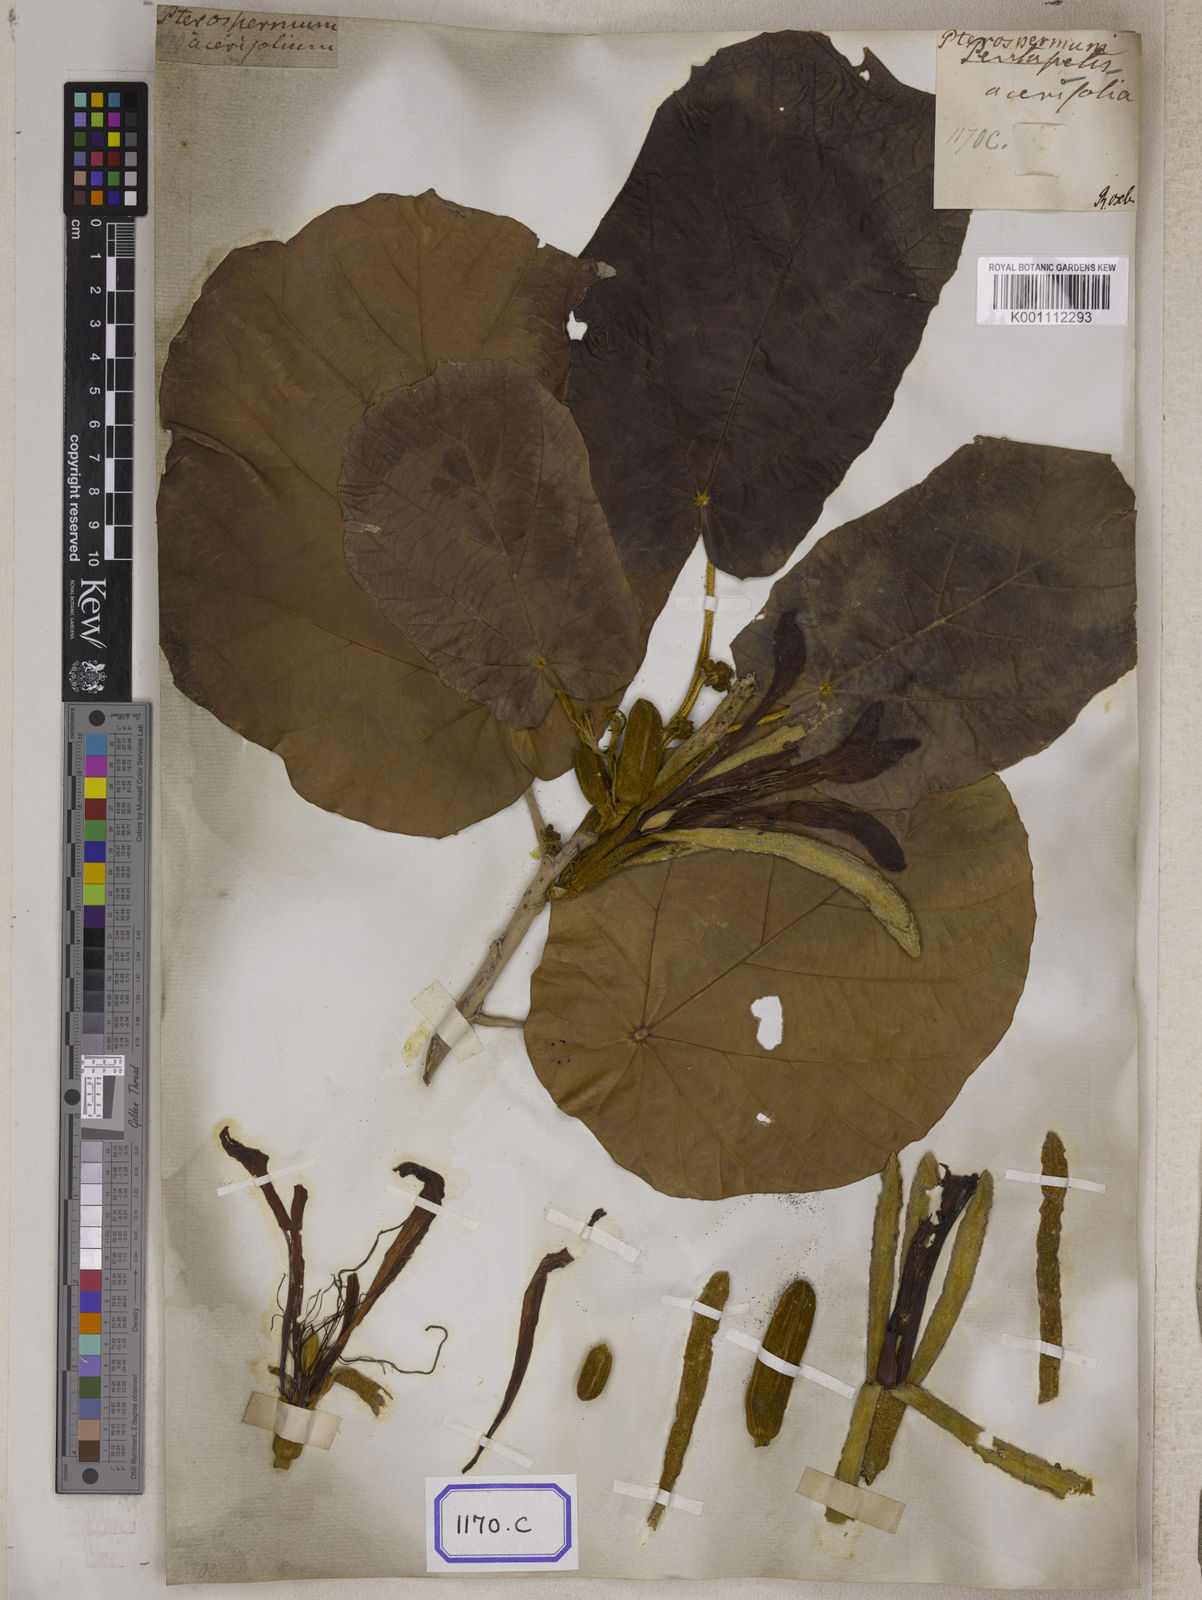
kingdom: Plantae
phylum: Tracheophyta
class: Magnoliopsida
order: Malvales
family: Malvaceae
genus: Pterospermum
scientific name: Pterospermum
